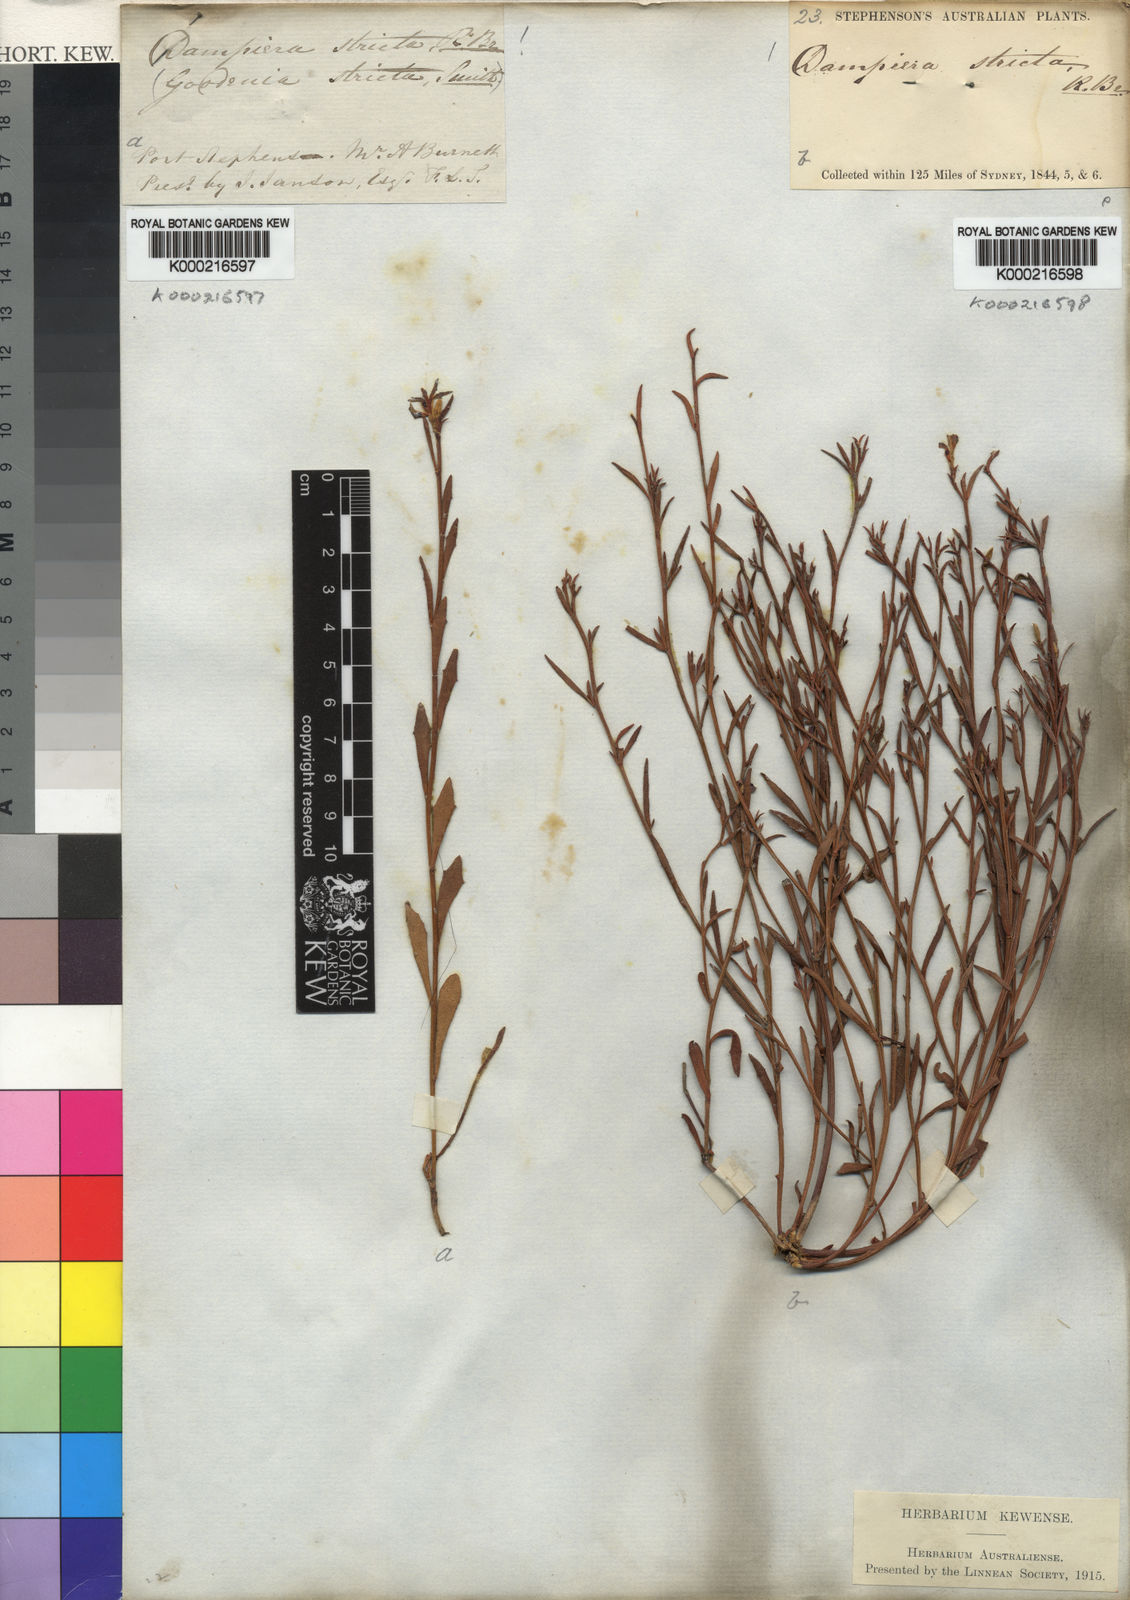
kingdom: Plantae
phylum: Tracheophyta
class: Magnoliopsida
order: Asterales
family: Goodeniaceae
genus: Dampiera
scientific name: Dampiera stricta
